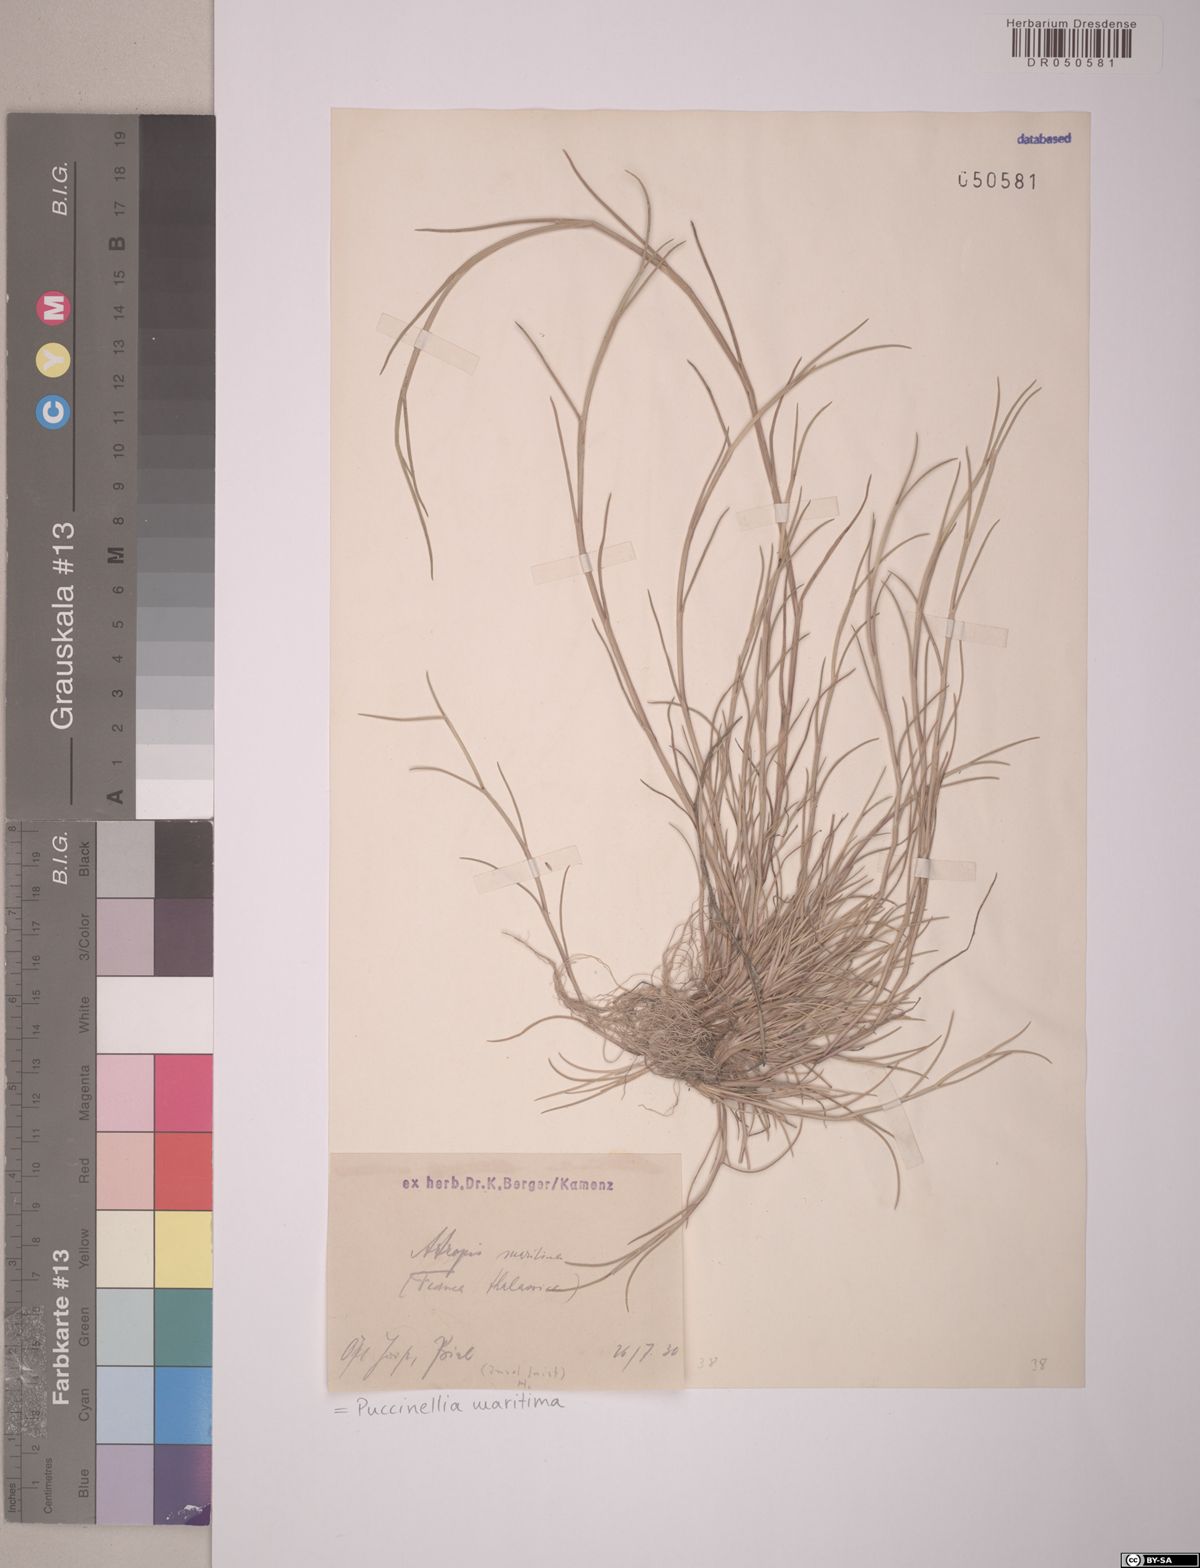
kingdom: Plantae
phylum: Tracheophyta
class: Liliopsida
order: Poales
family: Poaceae
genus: Puccinellia
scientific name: Puccinellia maritima
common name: Common saltmarsh grass
